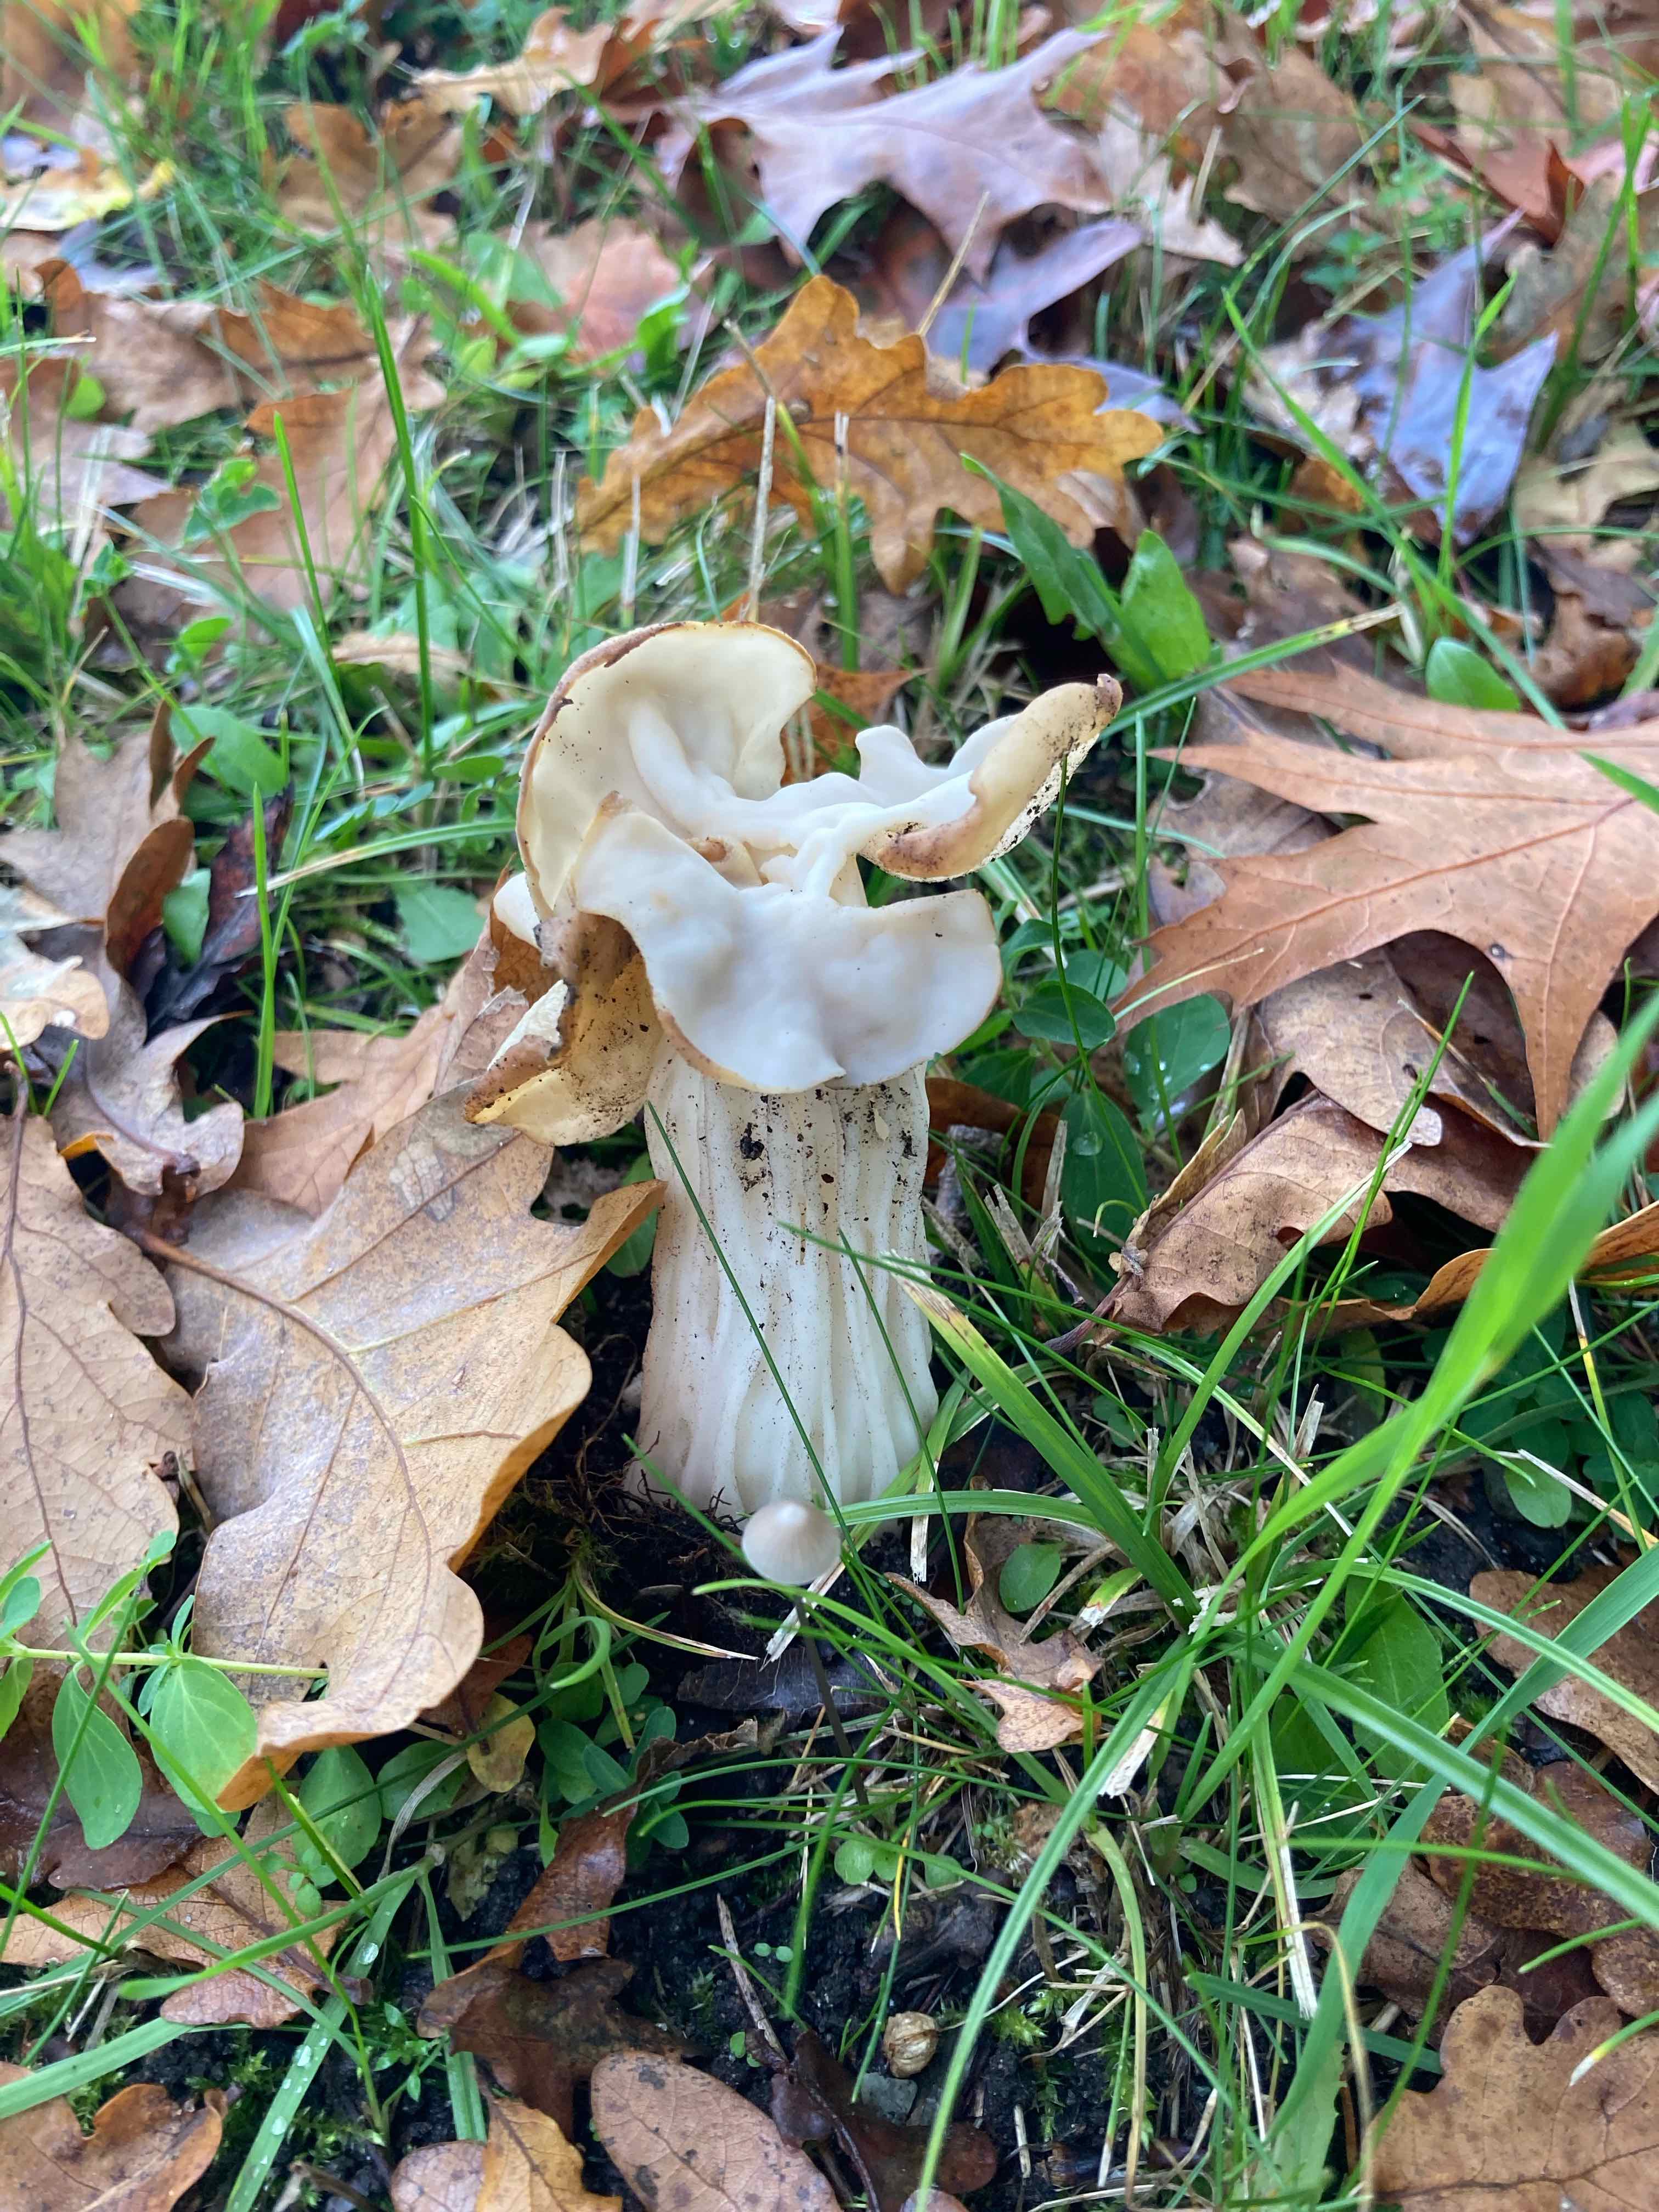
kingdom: Fungi
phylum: Ascomycota
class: Pezizomycetes
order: Pezizales
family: Helvellaceae
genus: Helvella
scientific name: Helvella crispa
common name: kruset foldhat
